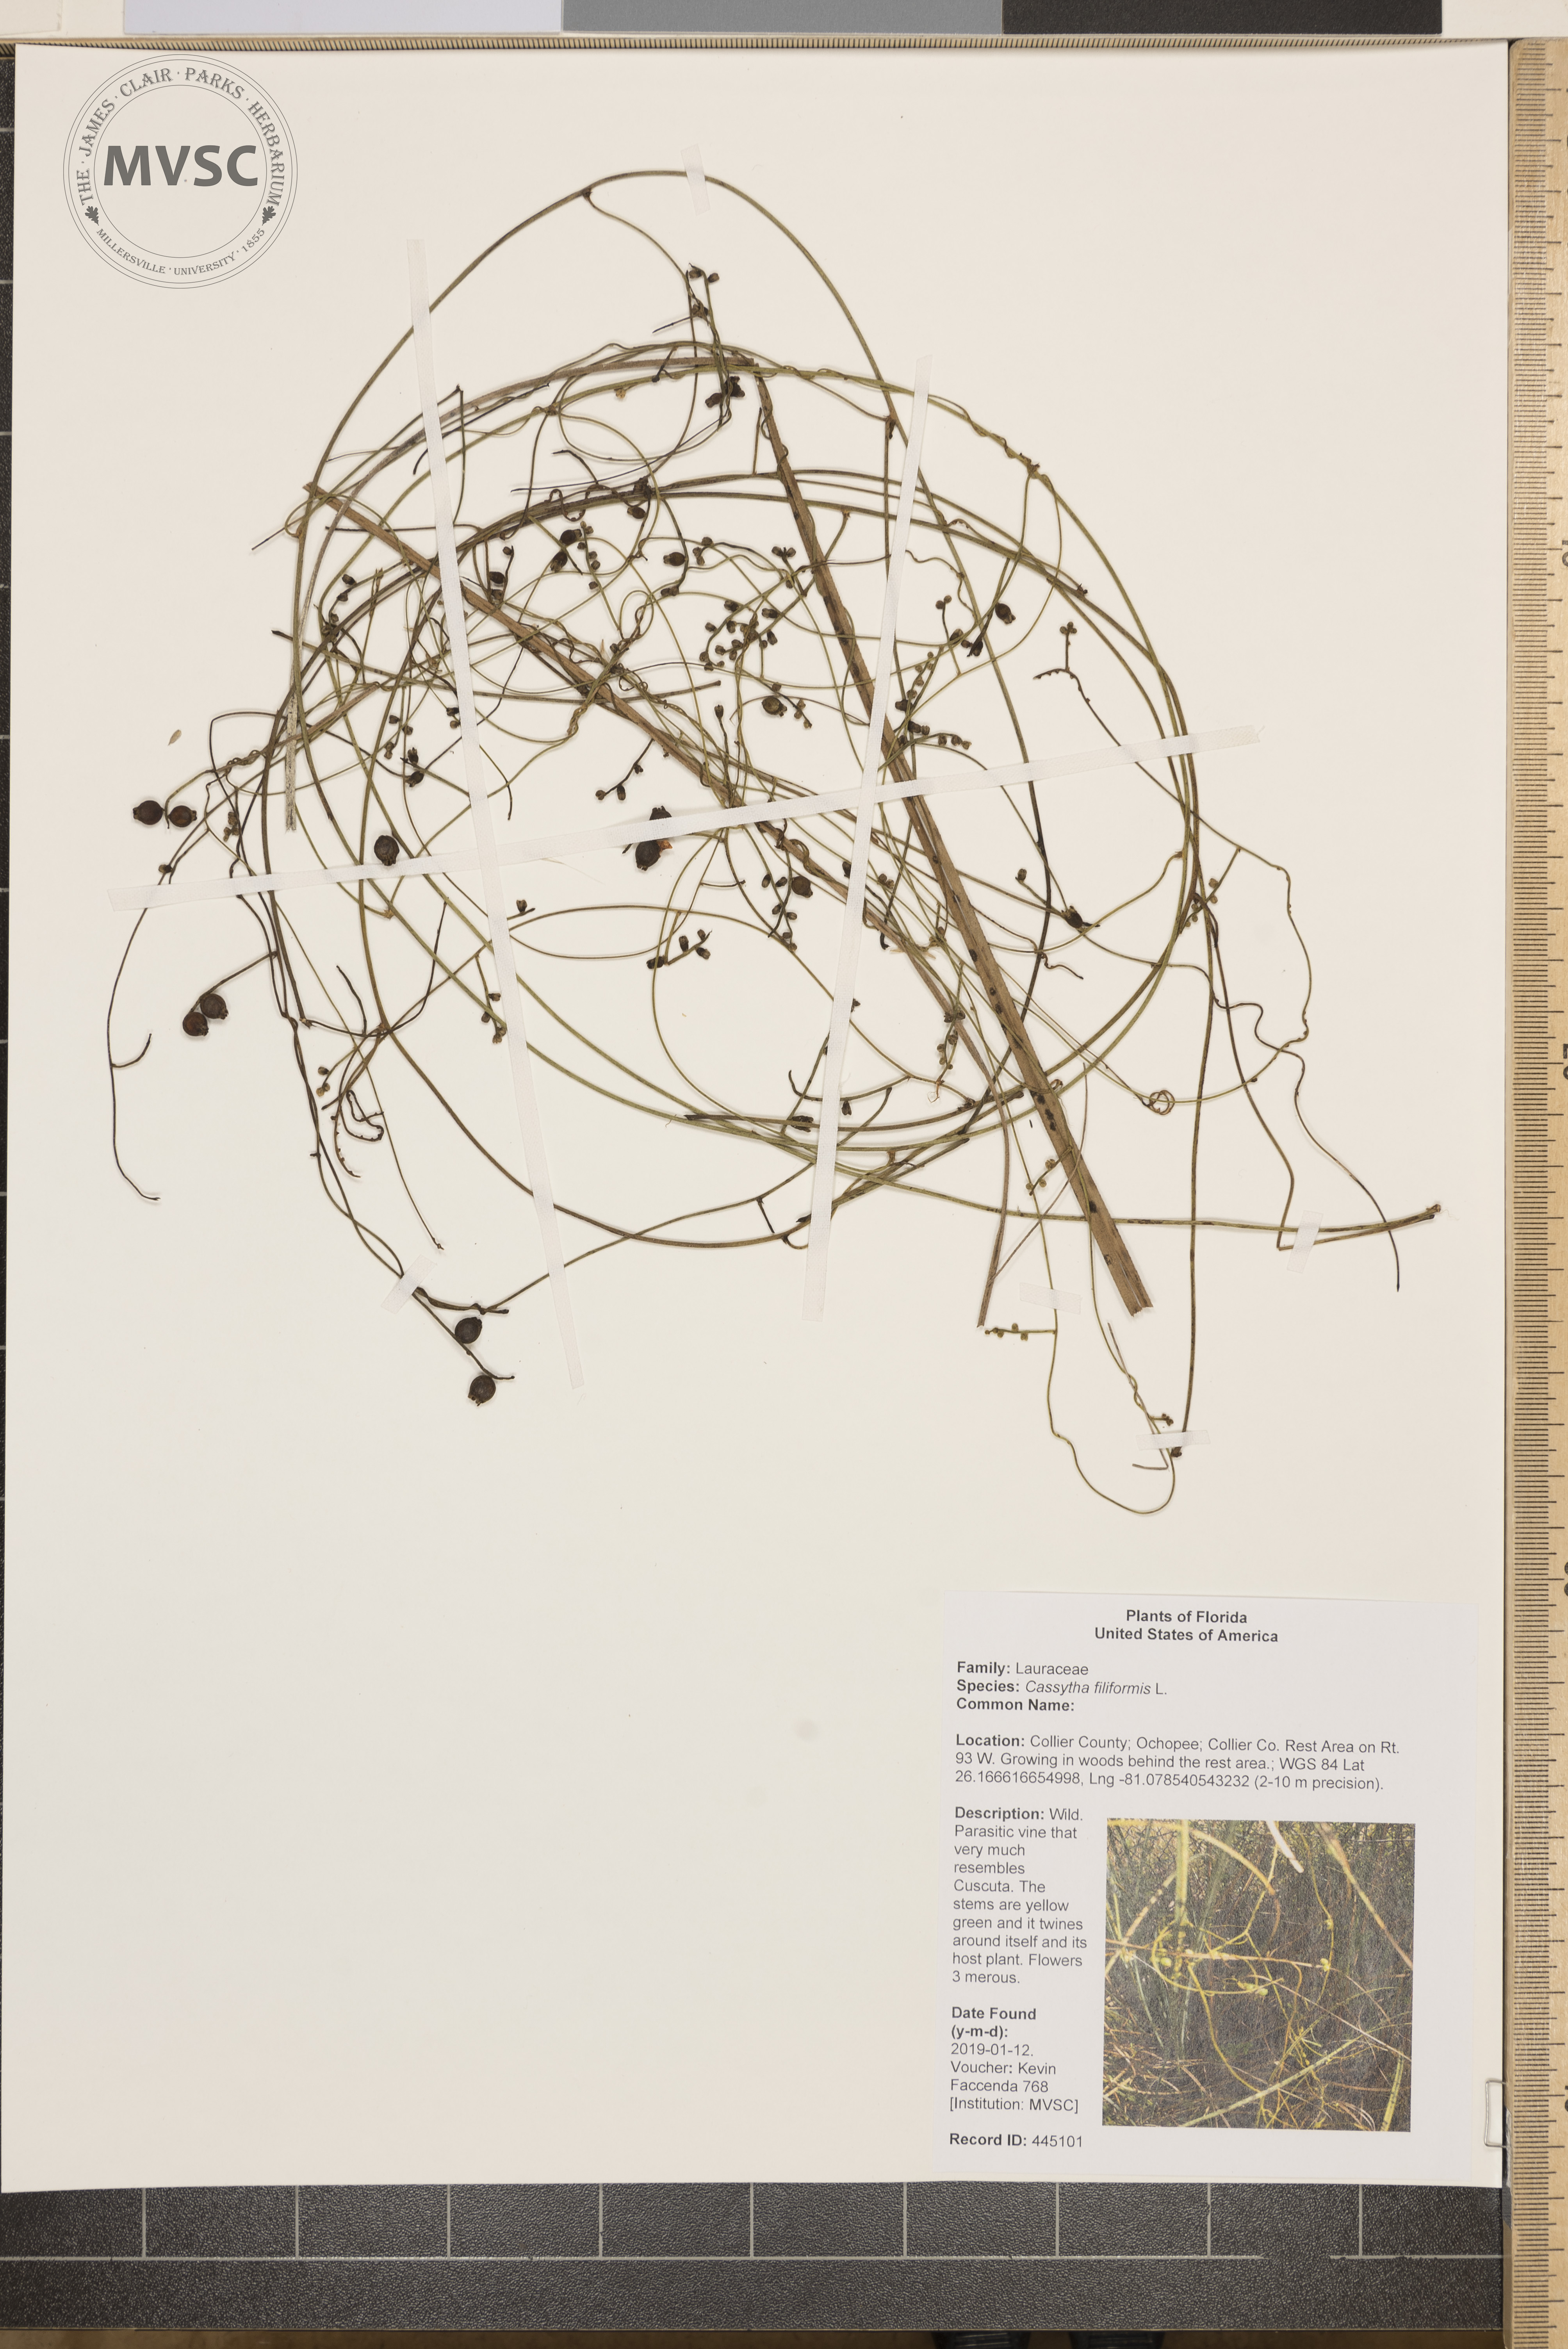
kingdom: Plantae
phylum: Tracheophyta
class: Magnoliopsida
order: Laurales
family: Lauraceae
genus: Cassytha
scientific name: Cassytha filiformis
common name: Dodder-laurel
